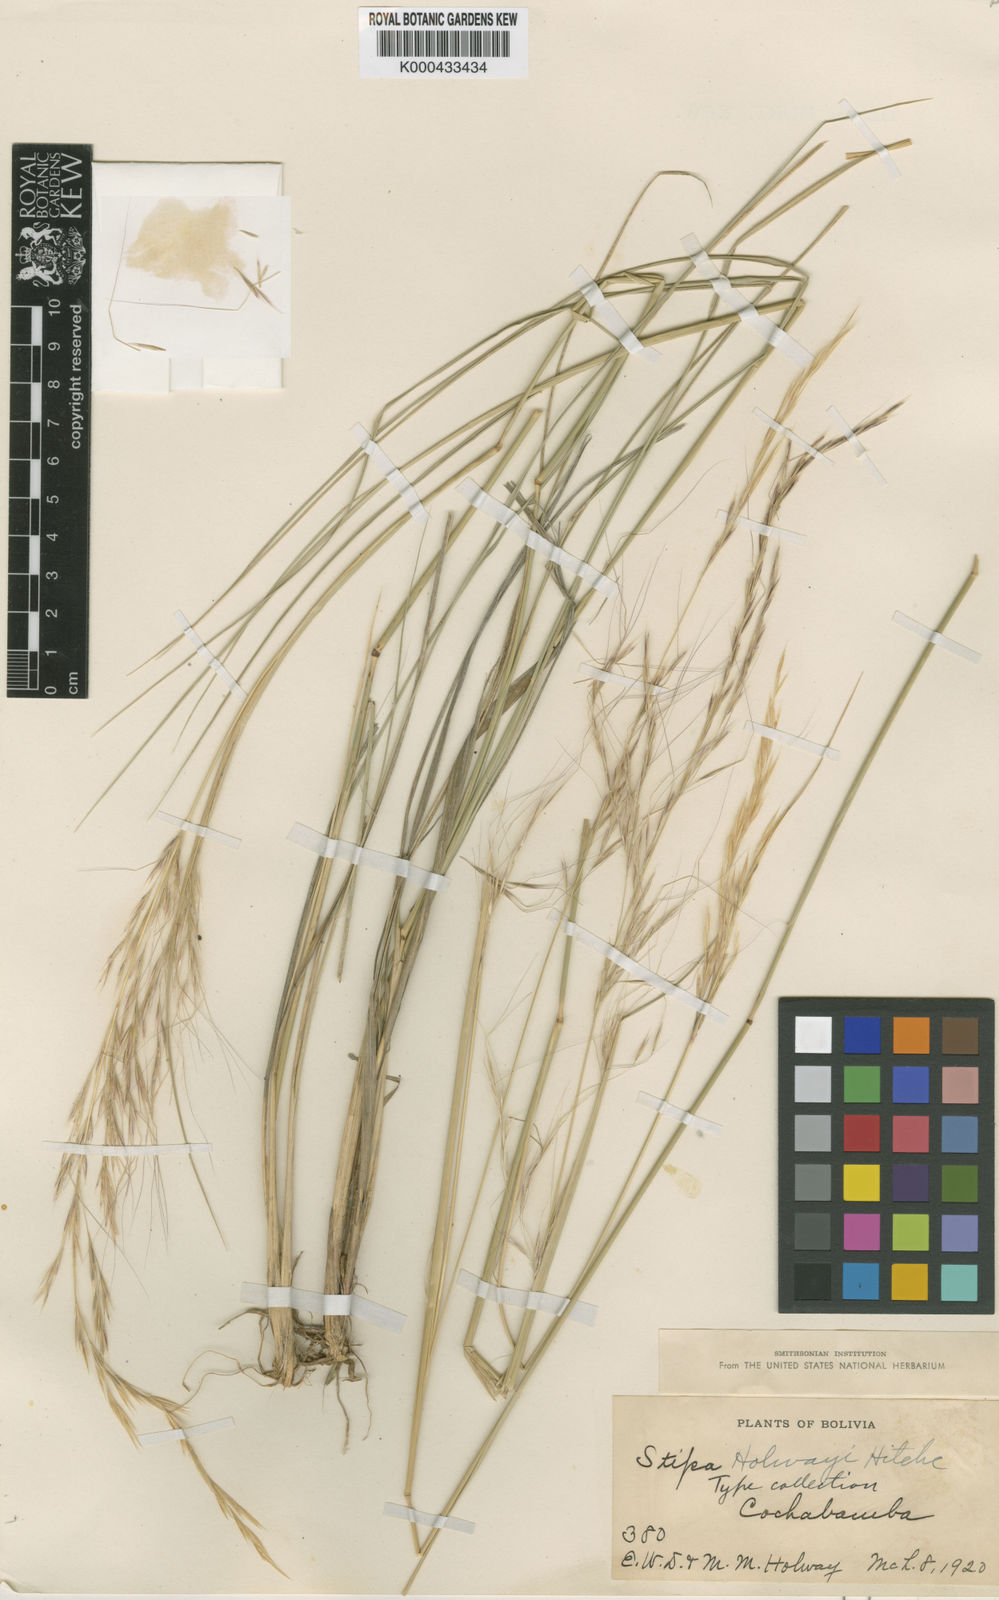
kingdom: Plantae
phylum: Tracheophyta
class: Liliopsida
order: Poales
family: Poaceae
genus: Nassella
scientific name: Nassella holwayi
